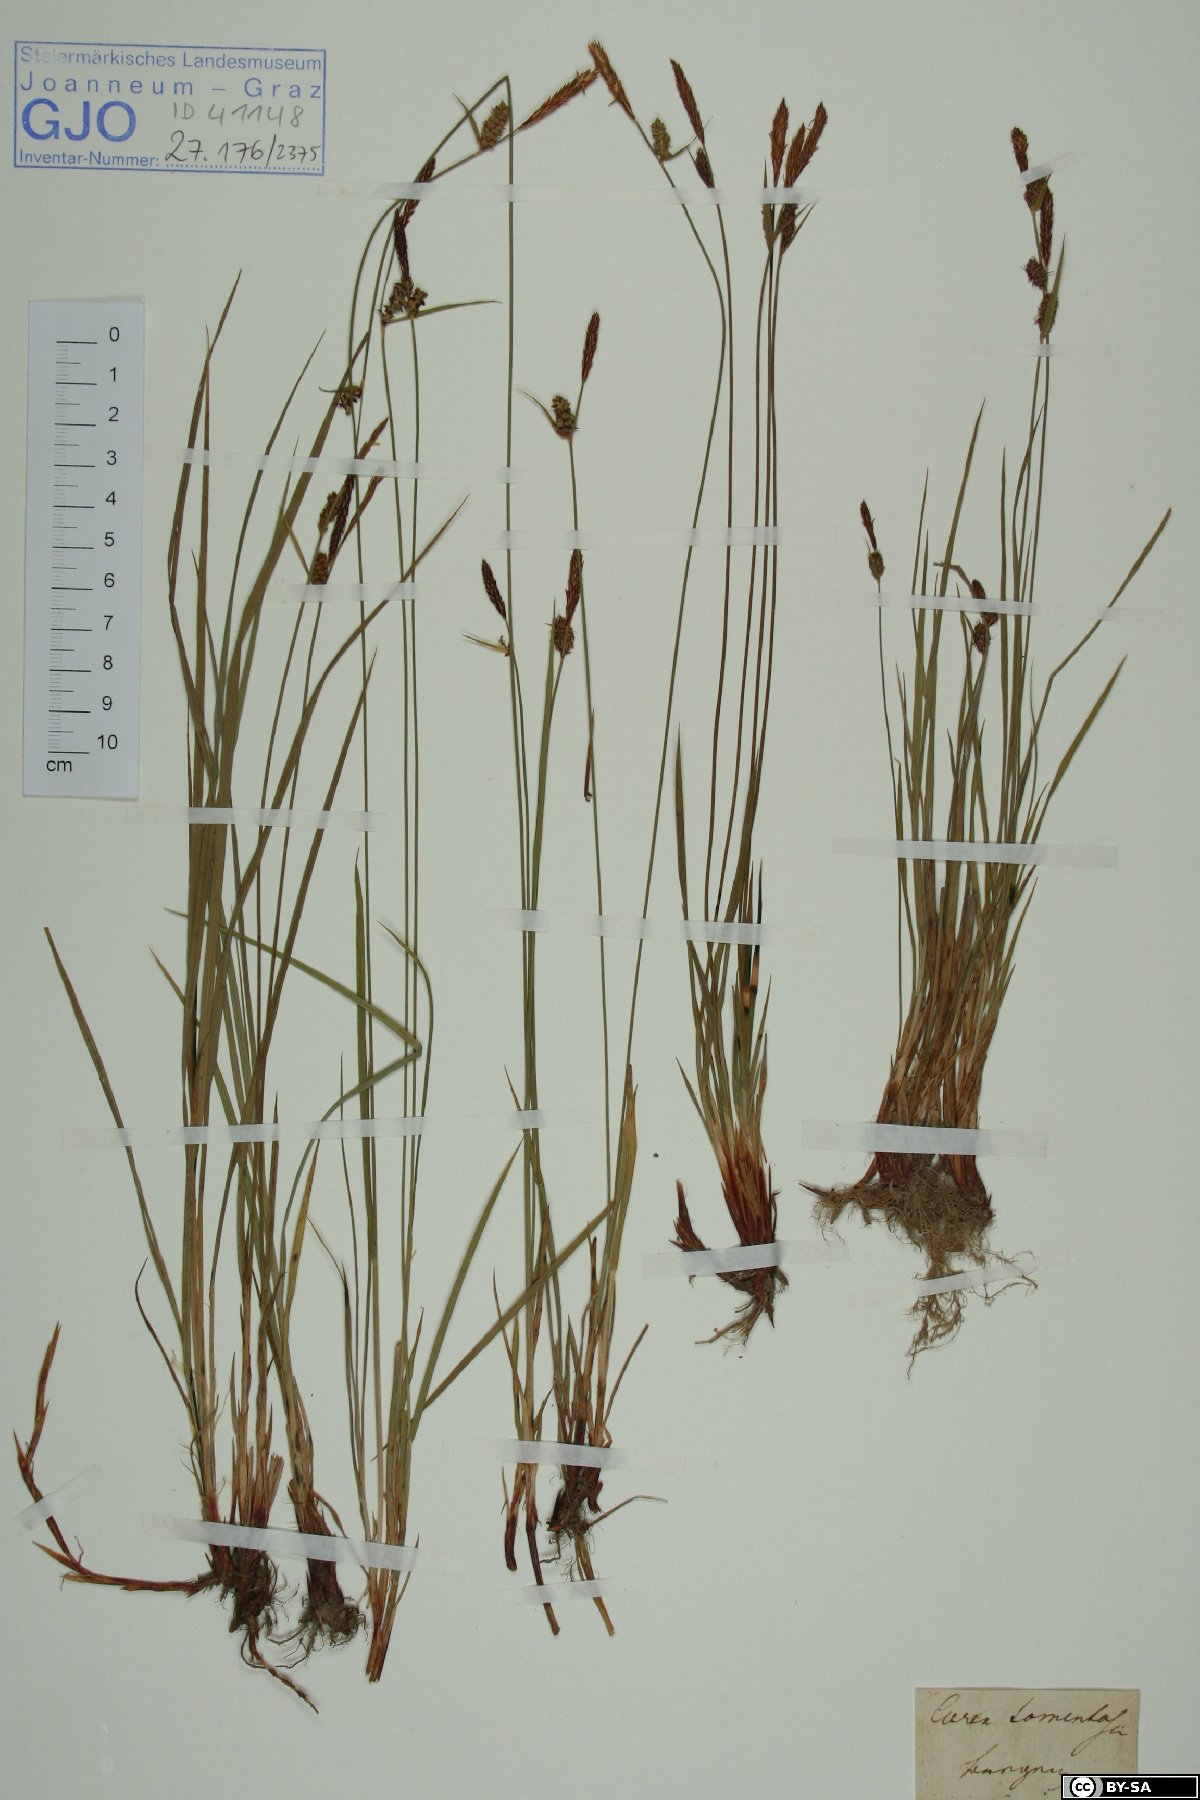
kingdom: Plantae
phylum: Tracheophyta
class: Liliopsida
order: Poales
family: Cyperaceae
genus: Carex
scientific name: Carex tomentosa
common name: Downy-fruited sedge
